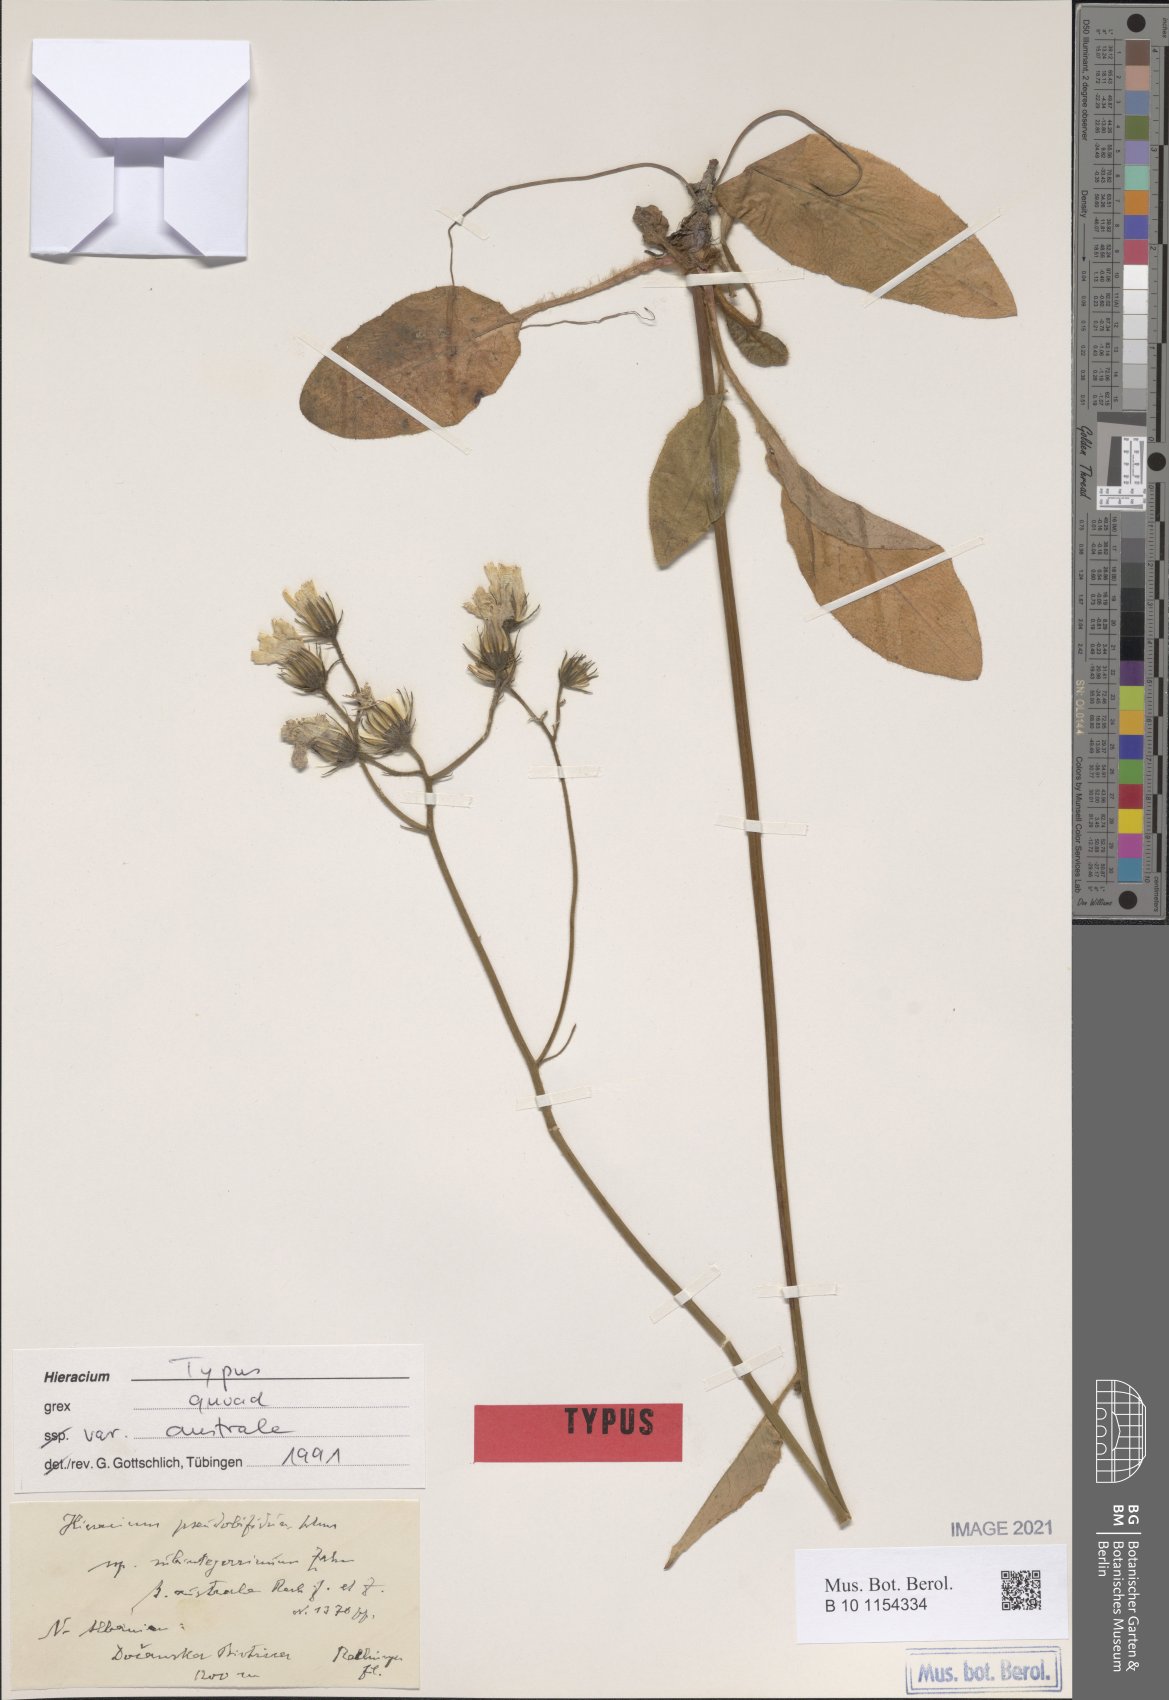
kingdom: Plantae
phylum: Tracheophyta
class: Magnoliopsida
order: Asterales
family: Asteraceae
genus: Hieracium
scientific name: Hieracium pseudobifidum
